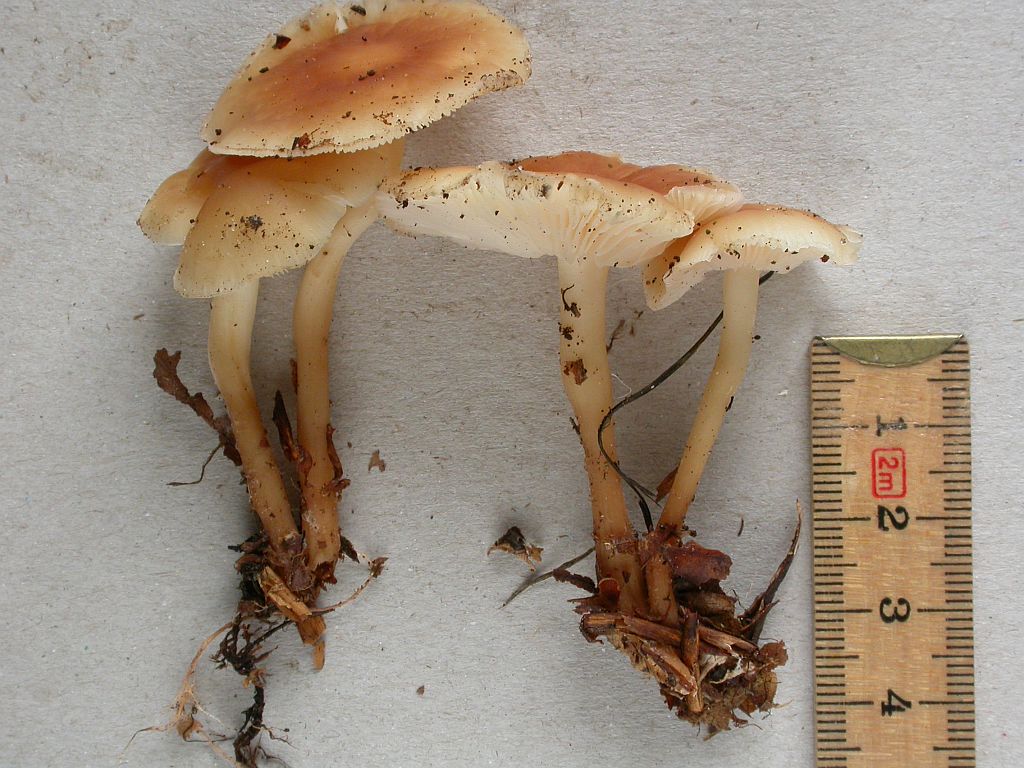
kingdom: Fungi
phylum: Basidiomycota
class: Agaricomycetes
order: Agaricales
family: Omphalotaceae
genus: Gymnopus
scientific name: Gymnopus dryophilus
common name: løv-fladhat
